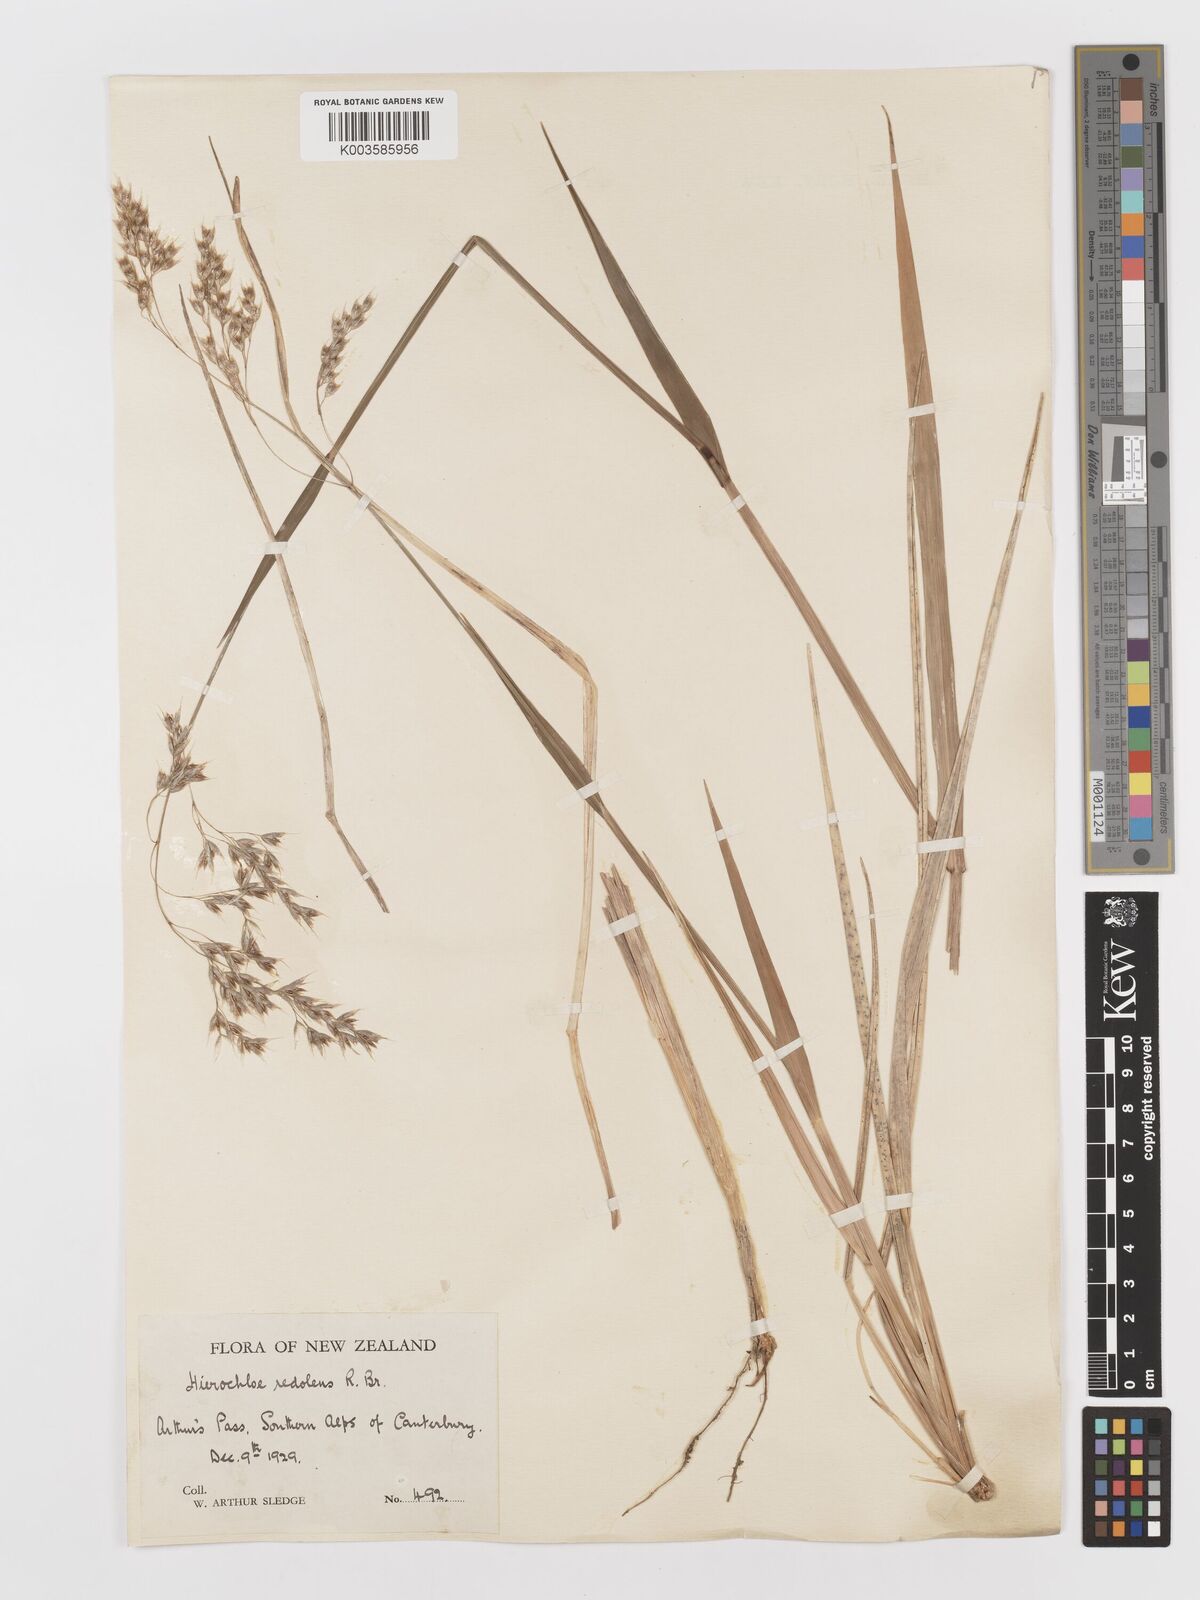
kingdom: Plantae
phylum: Tracheophyta
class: Liliopsida
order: Poales
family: Poaceae
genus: Anthoxanthum
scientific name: Anthoxanthum redolens
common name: Sweet holy grass
